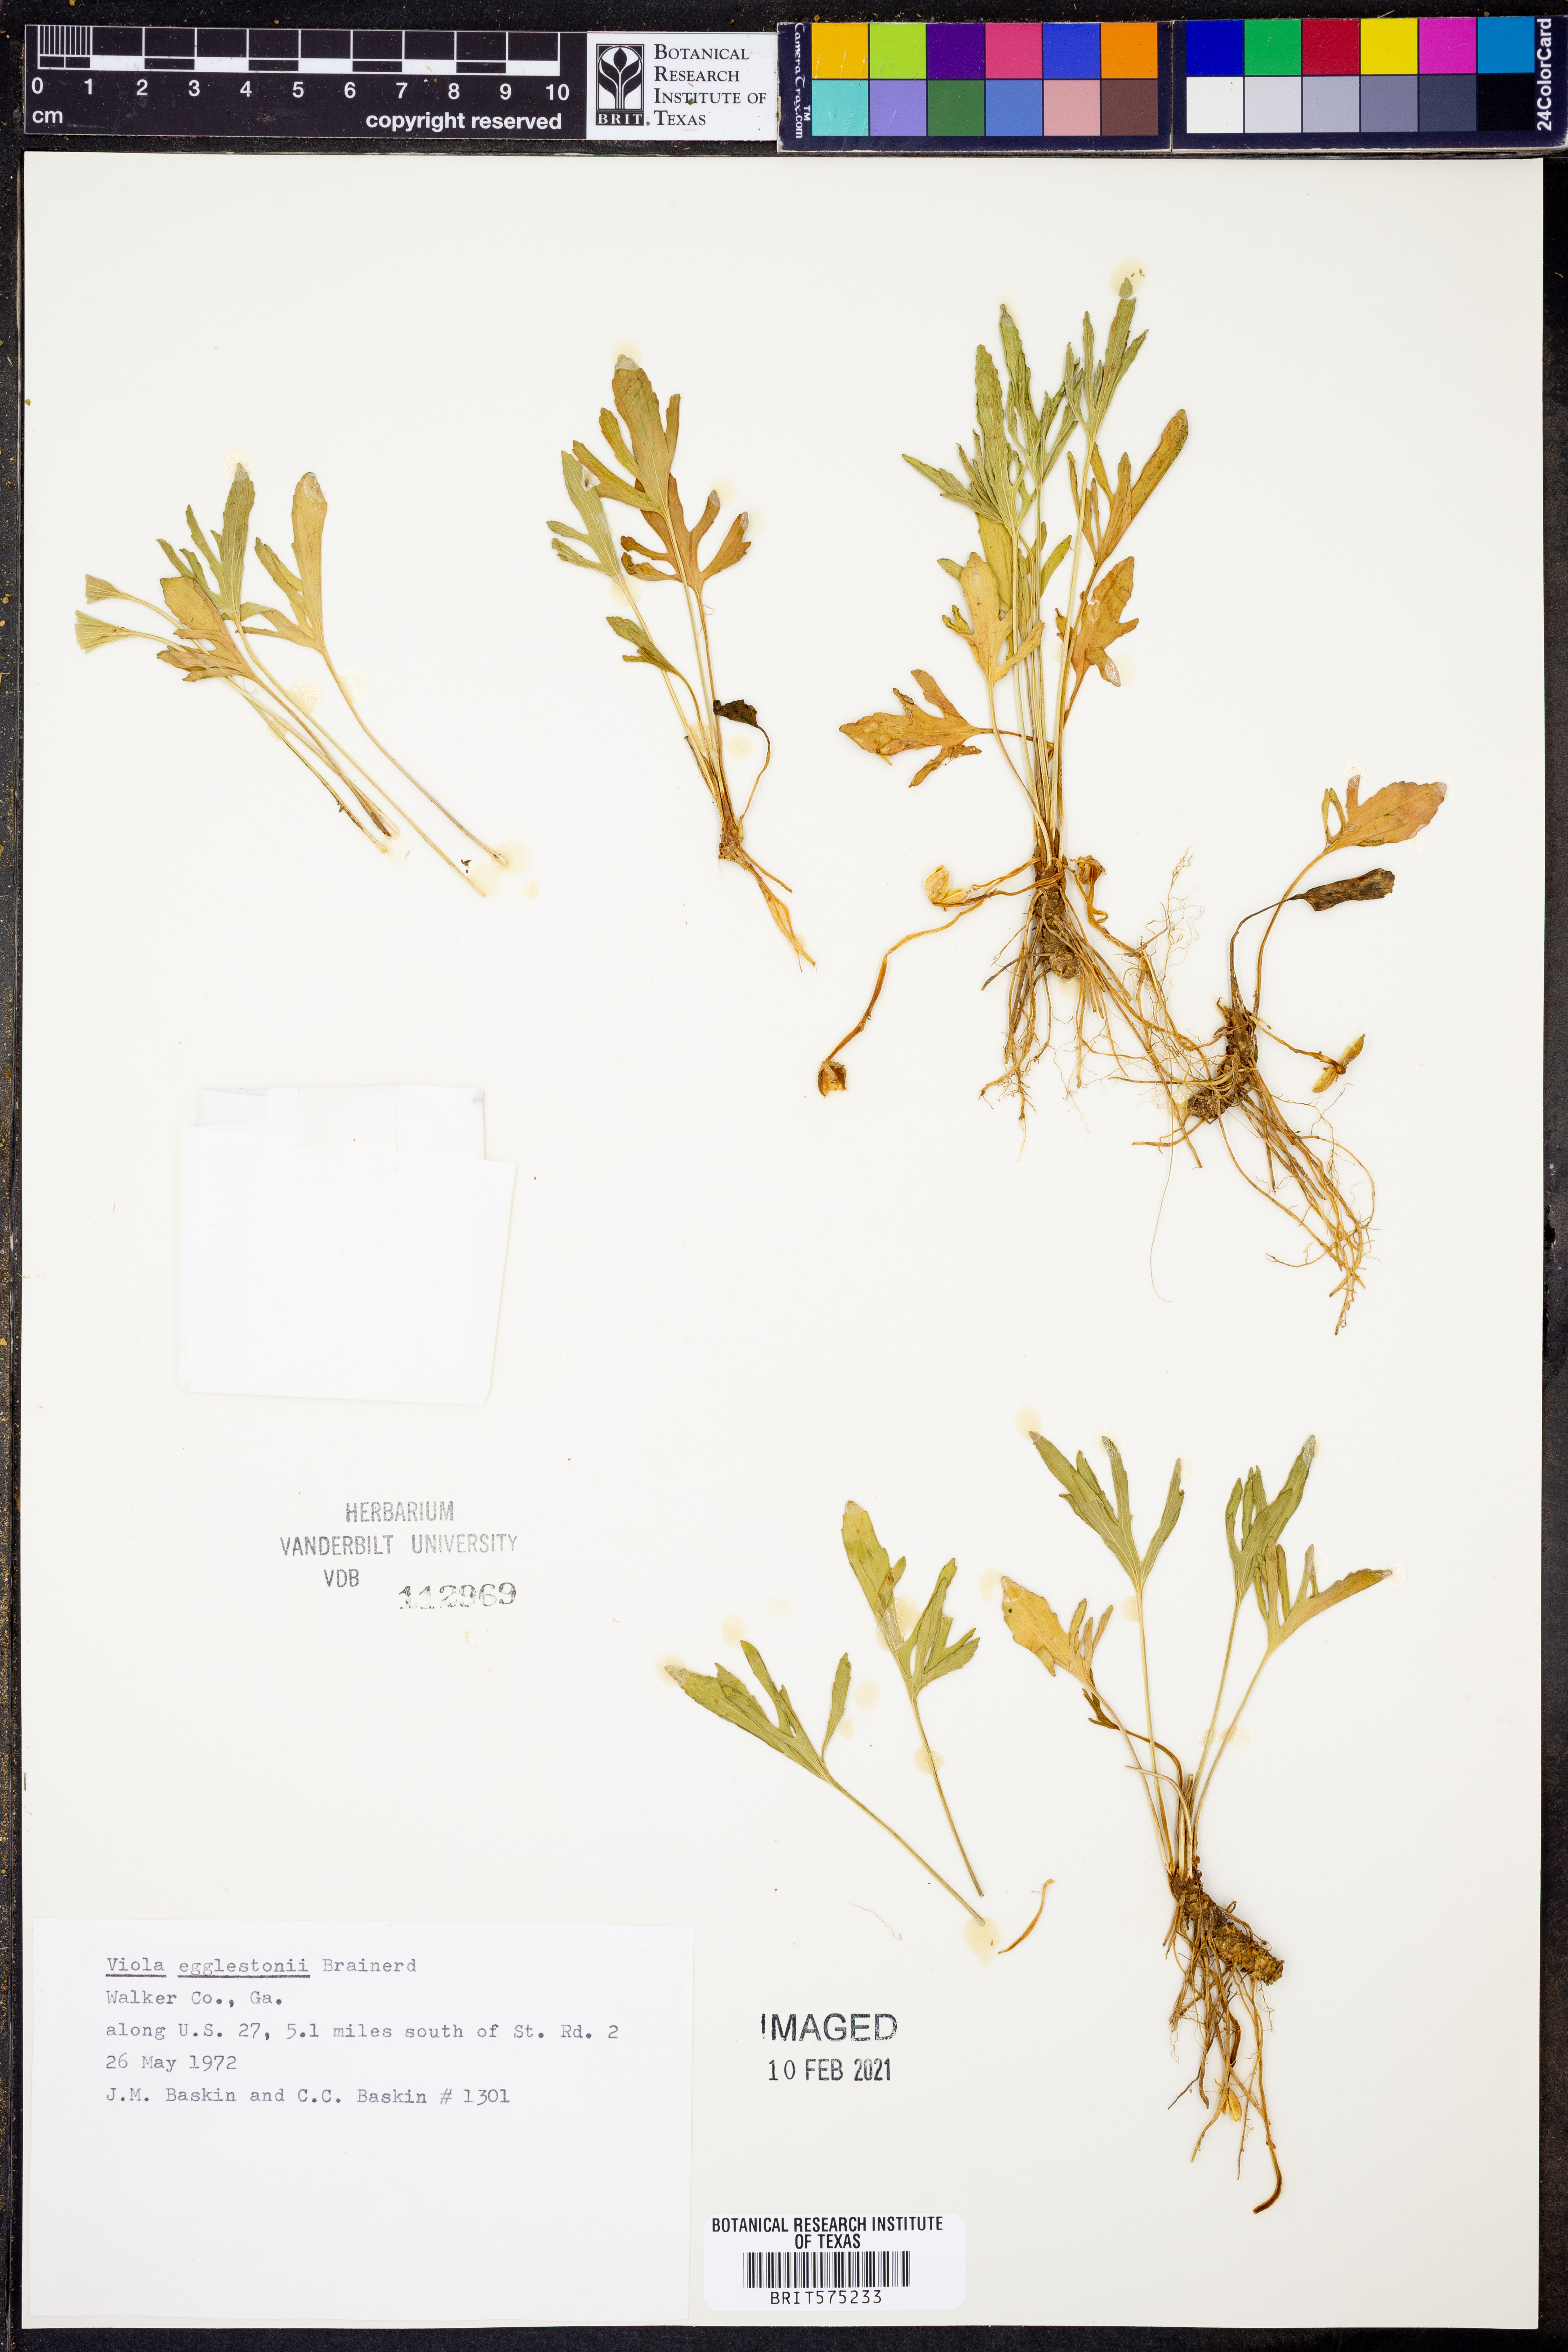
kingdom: Plantae
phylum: Tracheophyta
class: Magnoliopsida
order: Malpighiales
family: Violaceae
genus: Viola
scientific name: Viola egglestonii
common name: Glade violet
